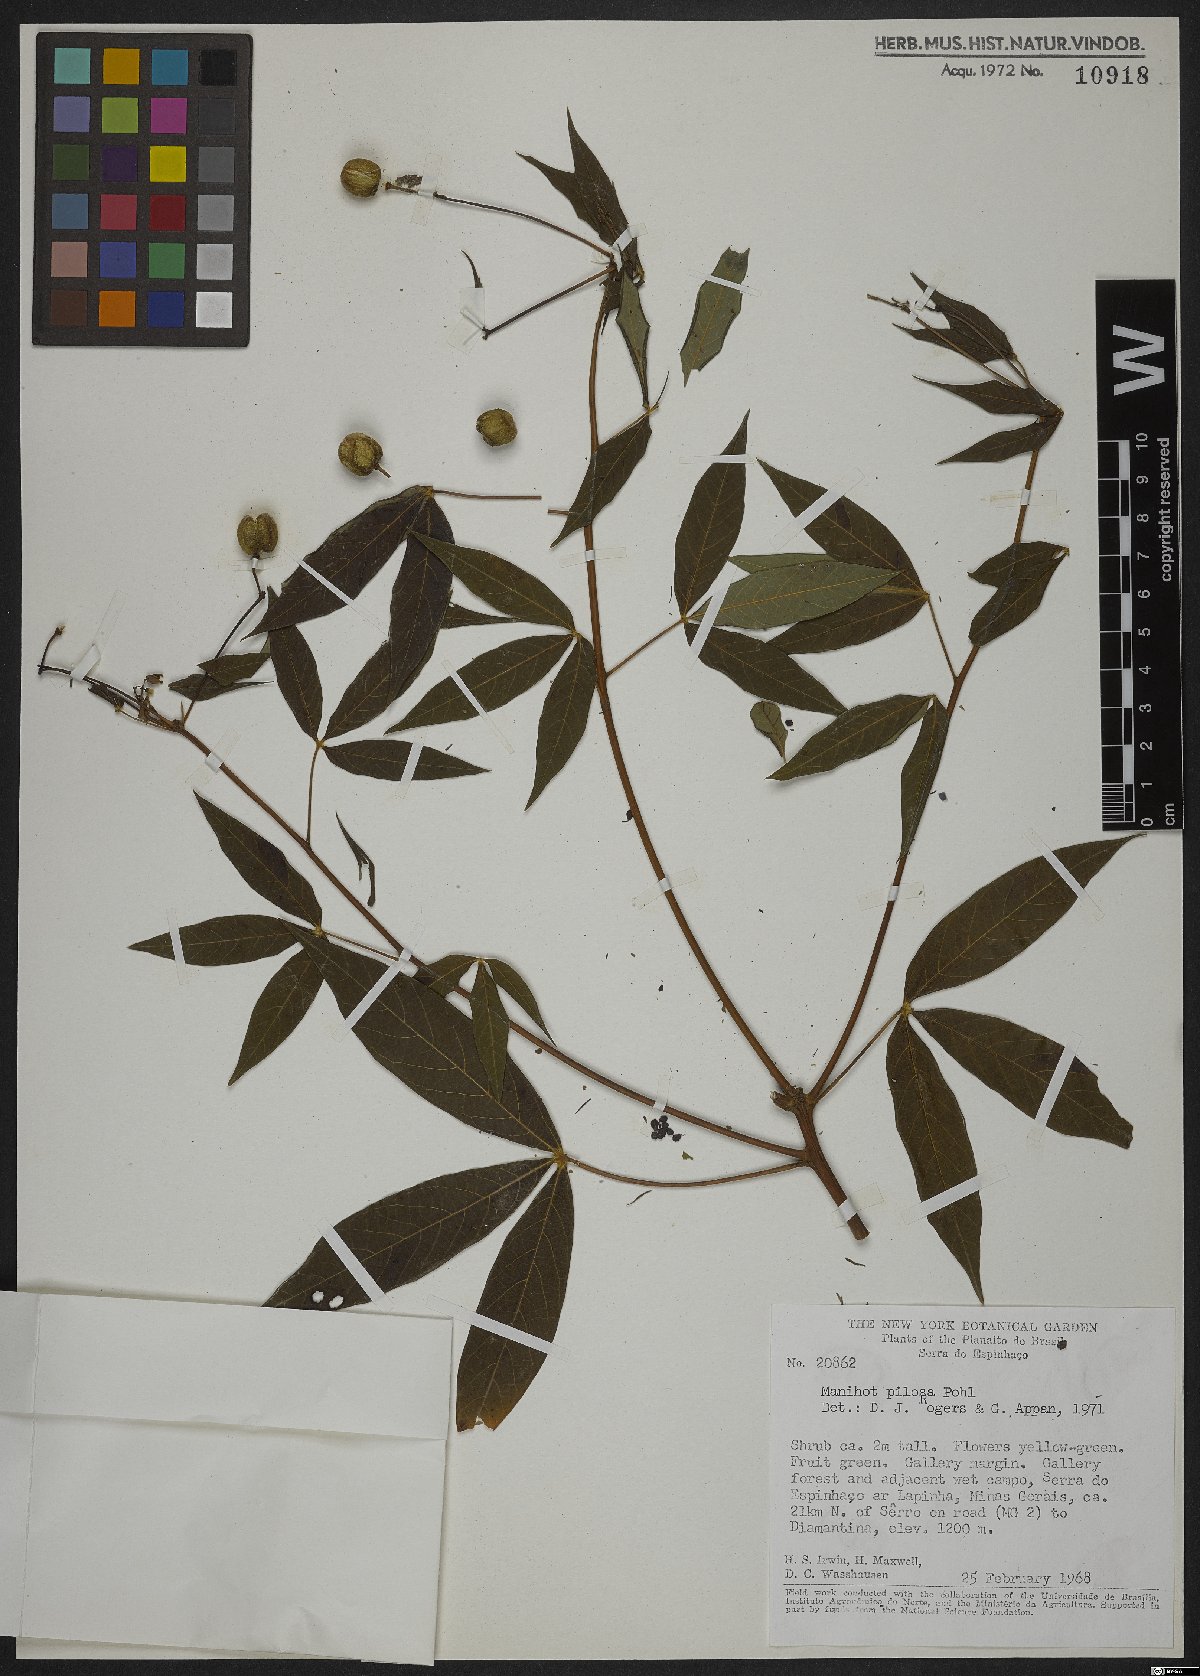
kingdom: Plantae
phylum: Tracheophyta
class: Magnoliopsida
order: Malpighiales
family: Euphorbiaceae
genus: Manihot
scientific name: Manihot pilosa
